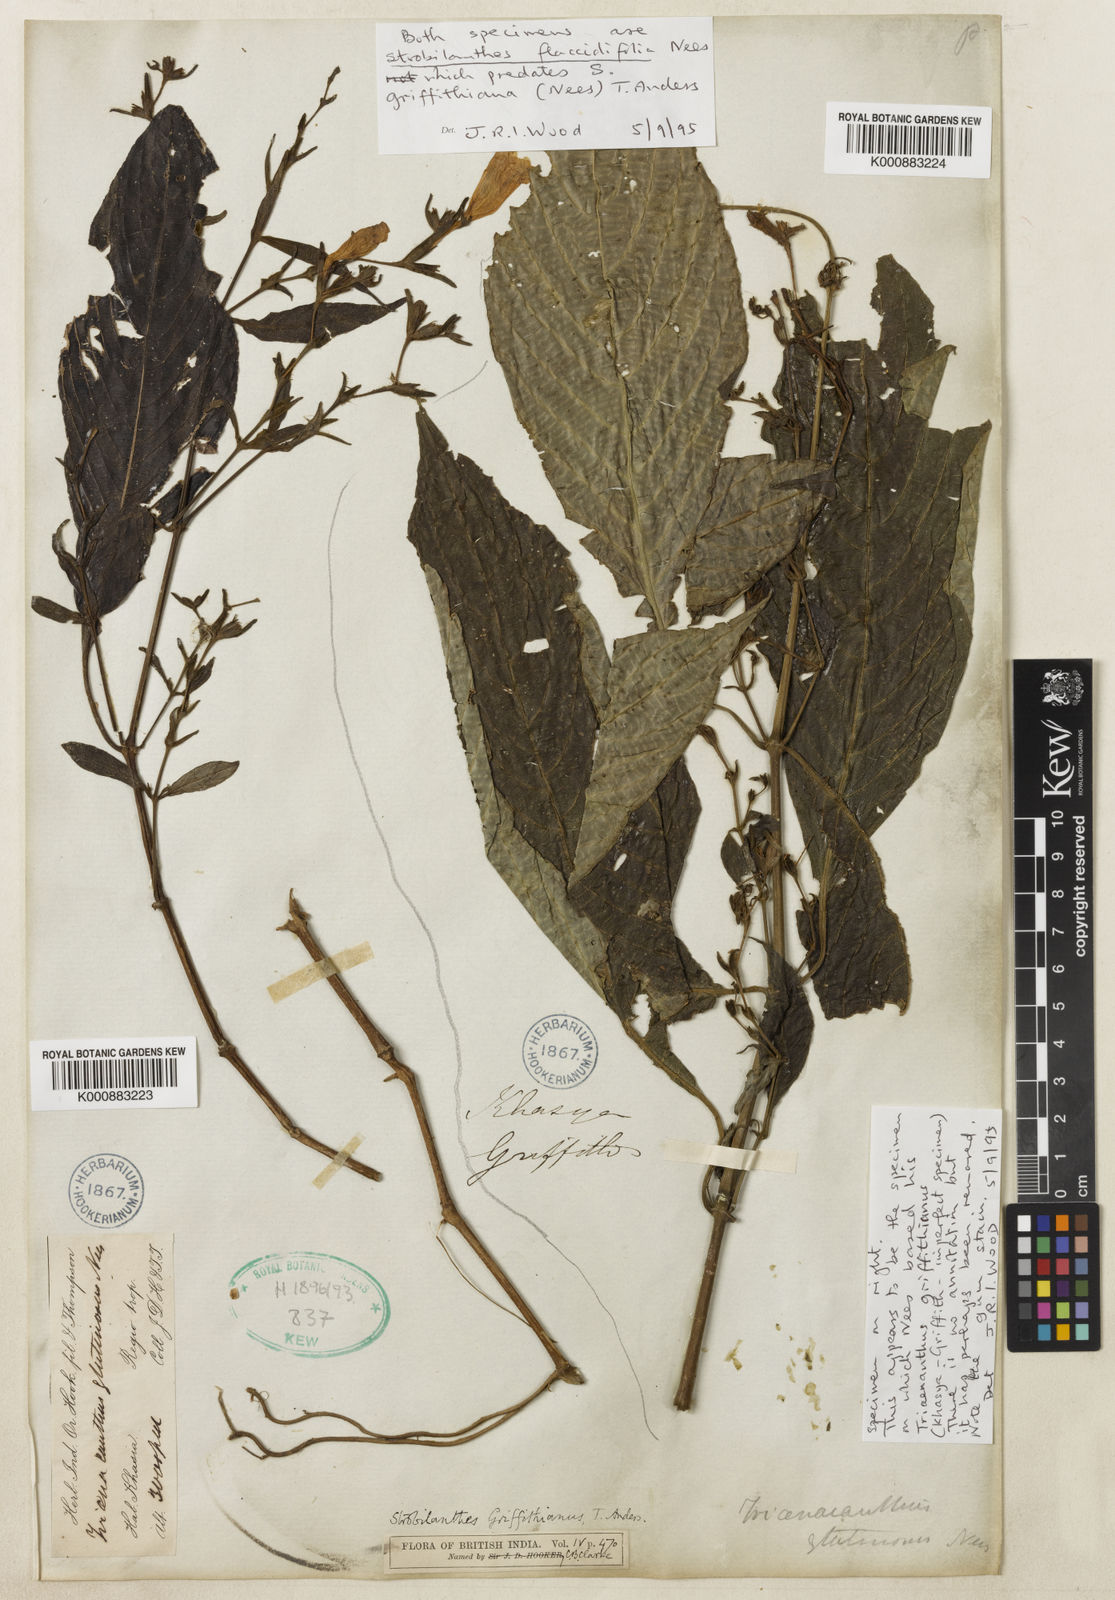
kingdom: Plantae
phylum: Tracheophyta
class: Magnoliopsida
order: Lamiales
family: Acanthaceae
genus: Strobilanthes
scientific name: Strobilanthes cusia
